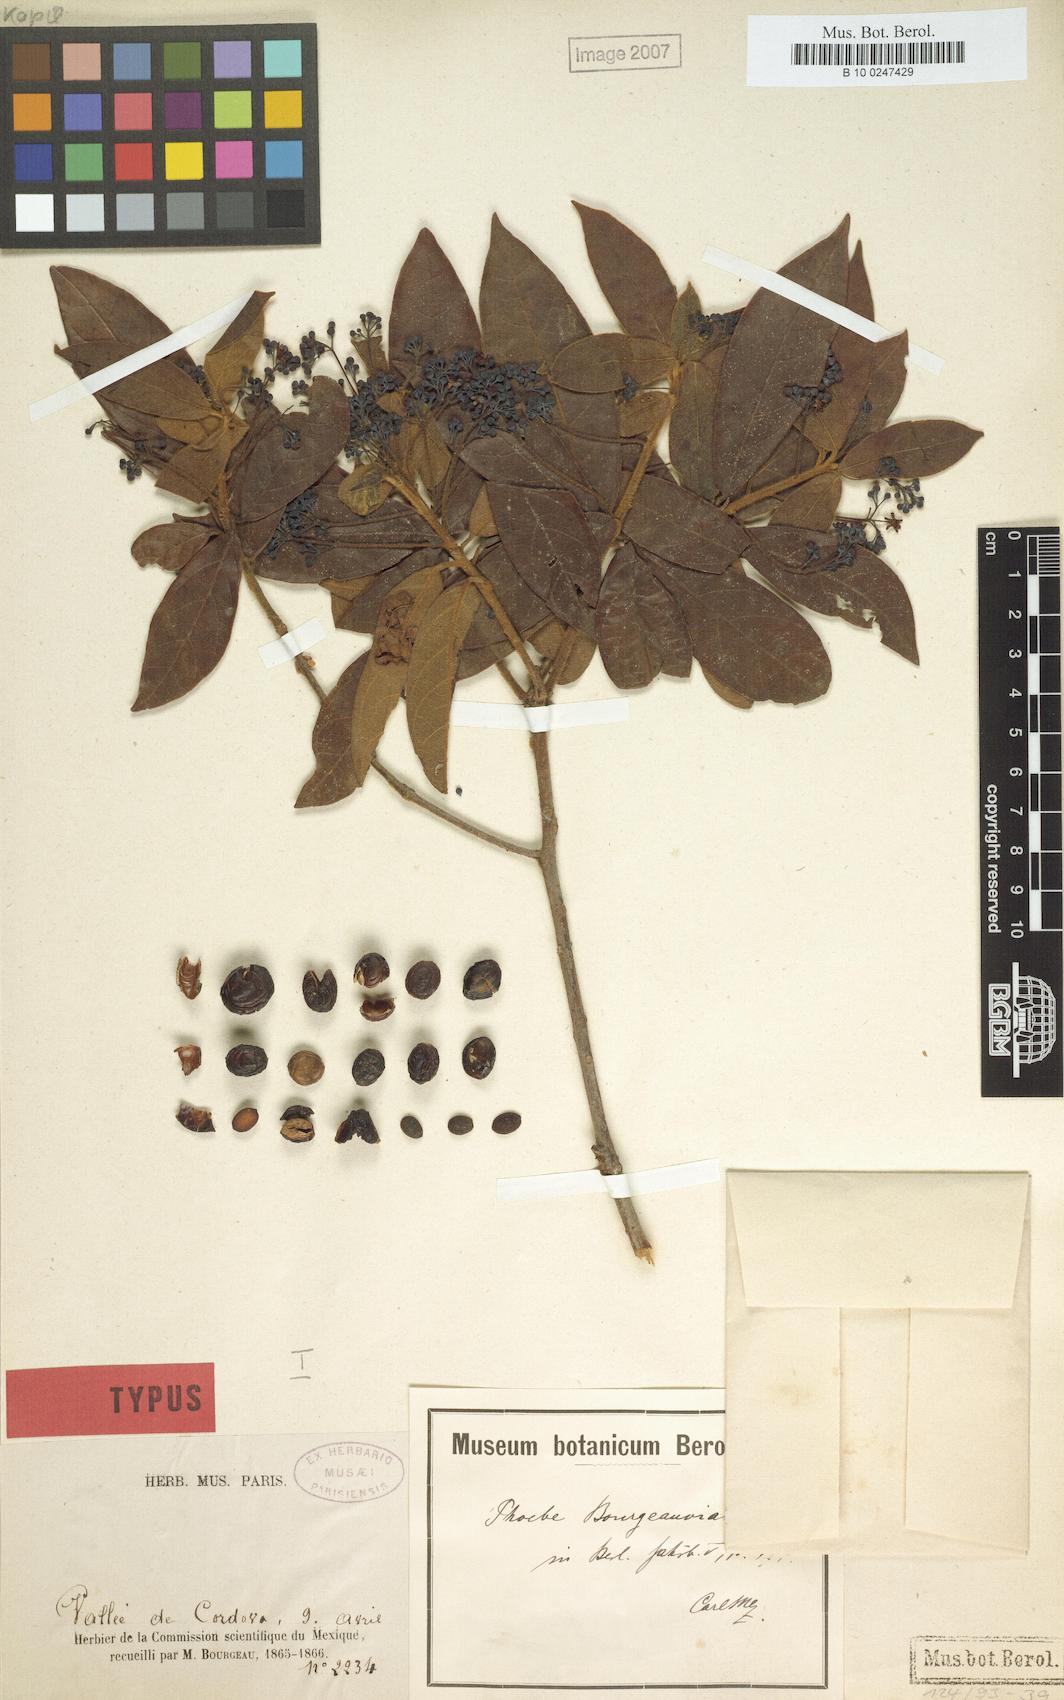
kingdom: Plantae
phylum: Tracheophyta
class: Magnoliopsida
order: Laurales
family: Lauraceae
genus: Ocotea
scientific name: Ocotea bourgeauviana
